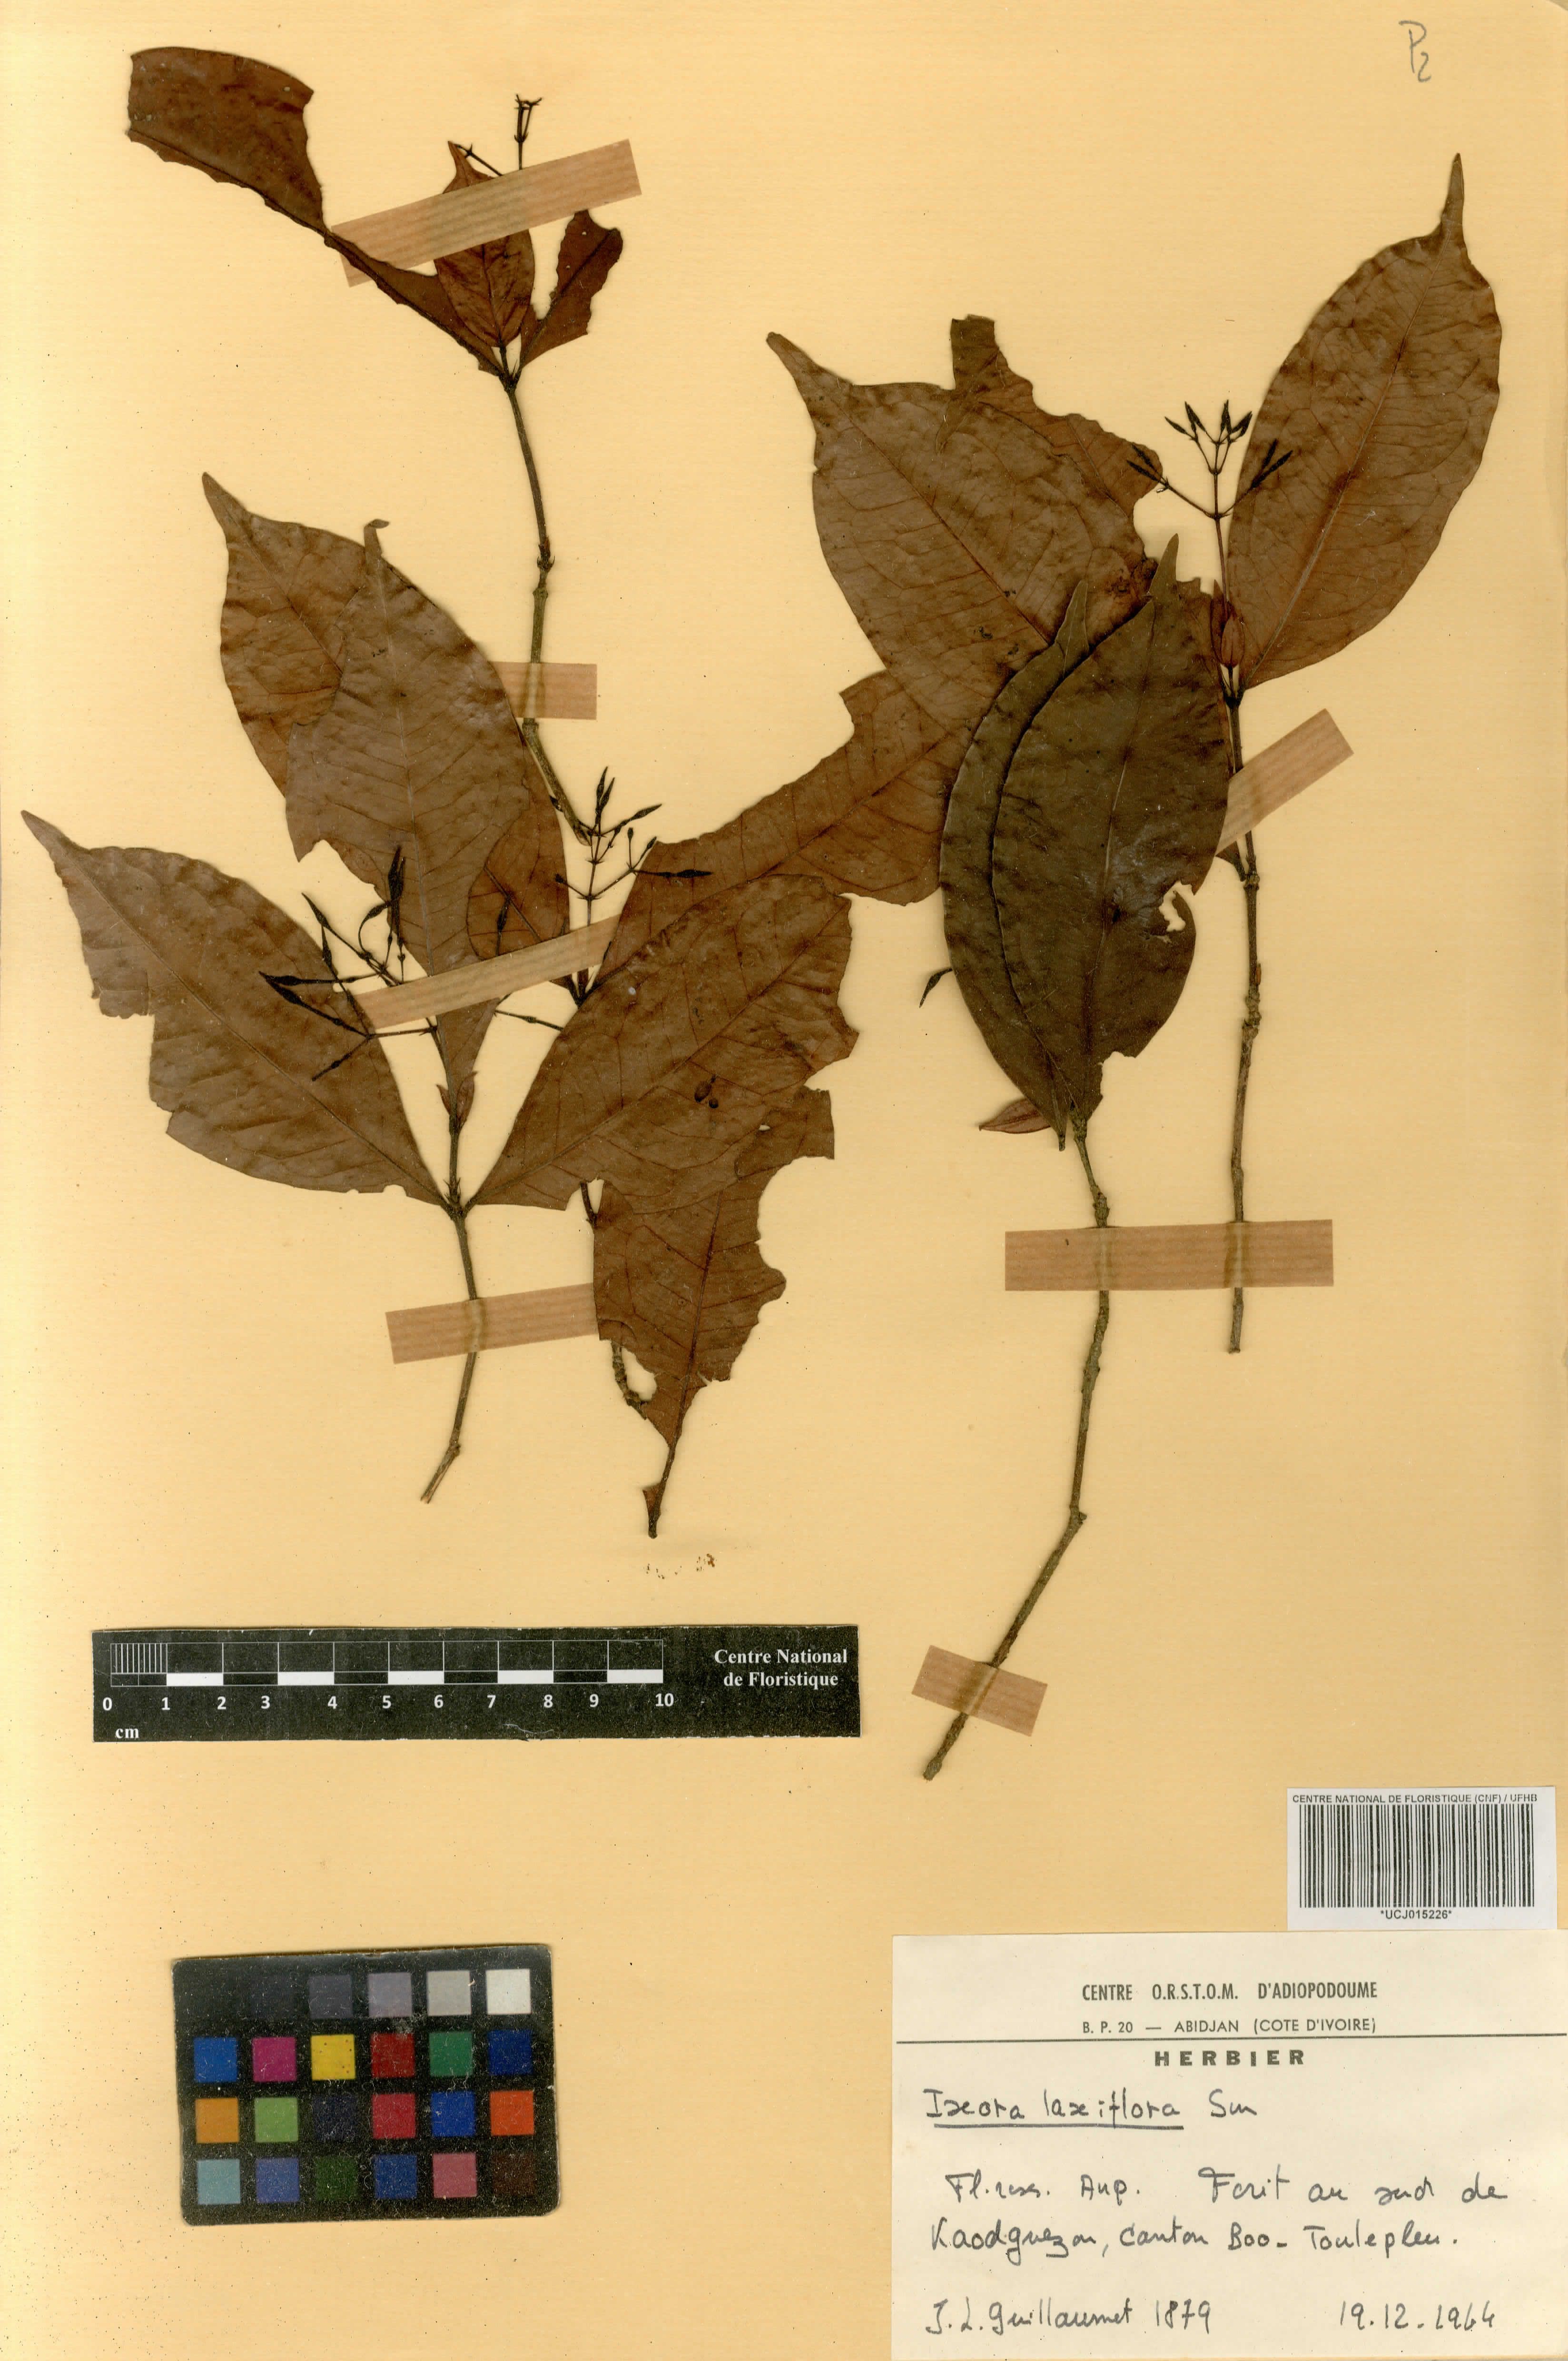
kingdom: Plantae
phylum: Tracheophyta
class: Magnoliopsida
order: Gentianales
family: Rubiaceae
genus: Ixora
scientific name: Ixora laxiflora
